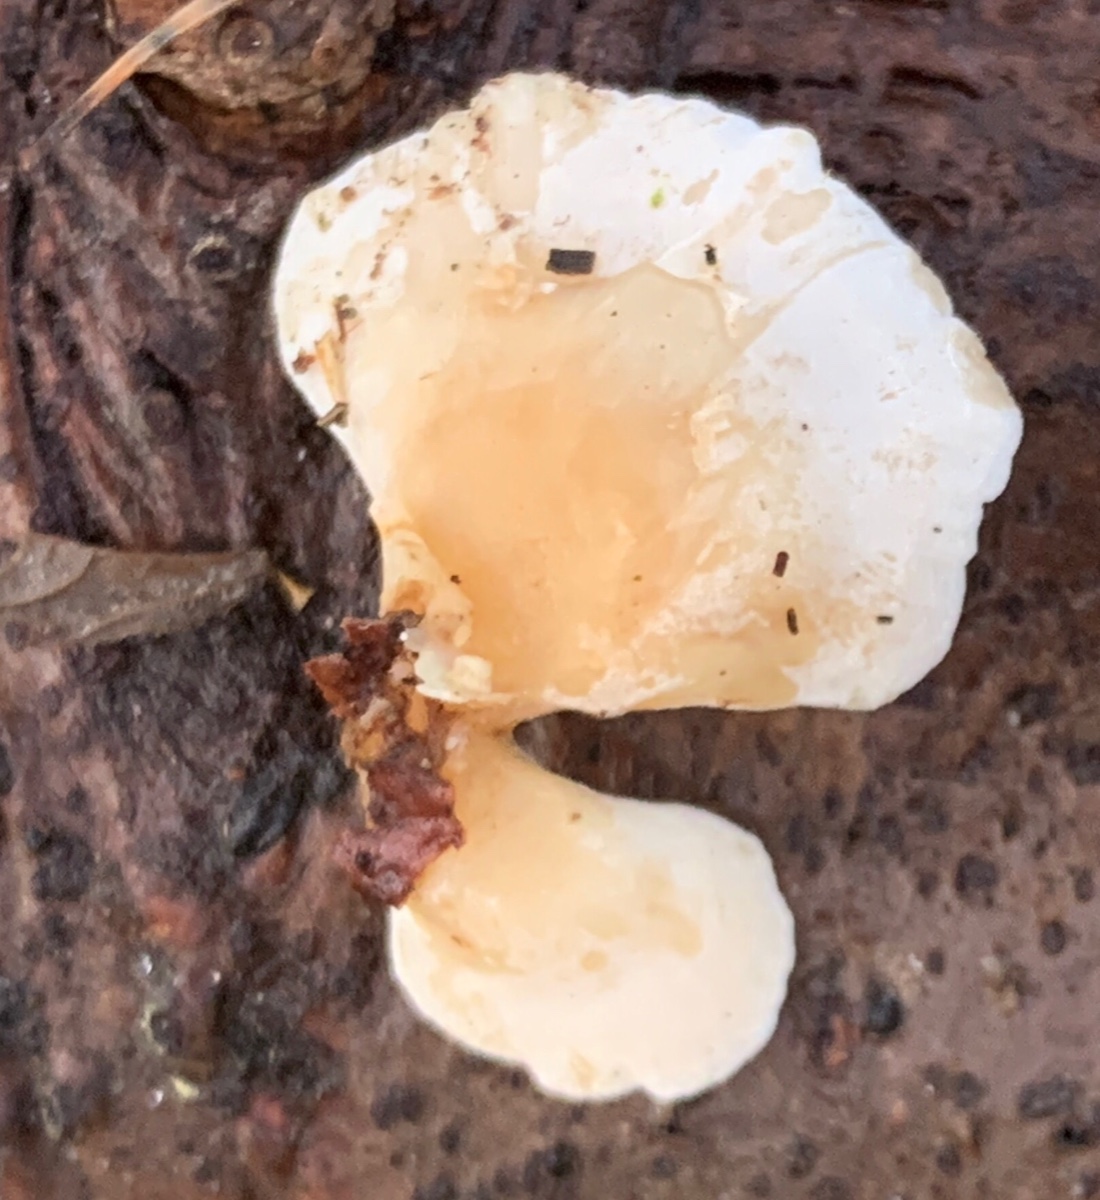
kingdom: Fungi
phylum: Basidiomycota
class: Agaricomycetes
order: Agaricales
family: Mycenaceae
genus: Panellus
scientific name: Panellus mitis
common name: mild epaulethat
